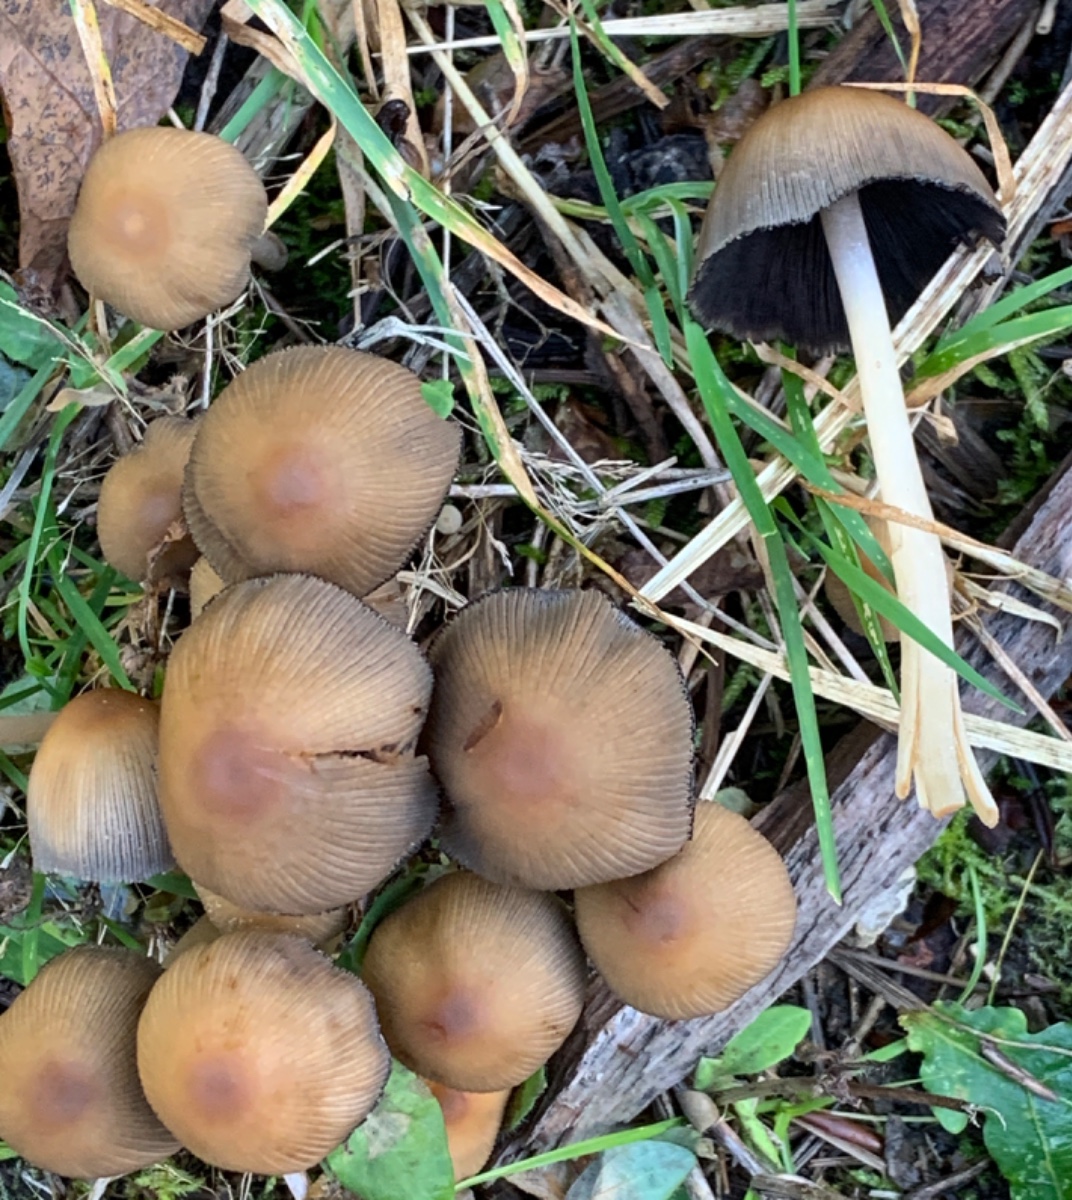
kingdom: Fungi
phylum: Basidiomycota
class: Agaricomycetes
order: Agaricales
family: Psathyrellaceae
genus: Coprinellus
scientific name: Coprinellus micaceus
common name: glimmer-blækhat
